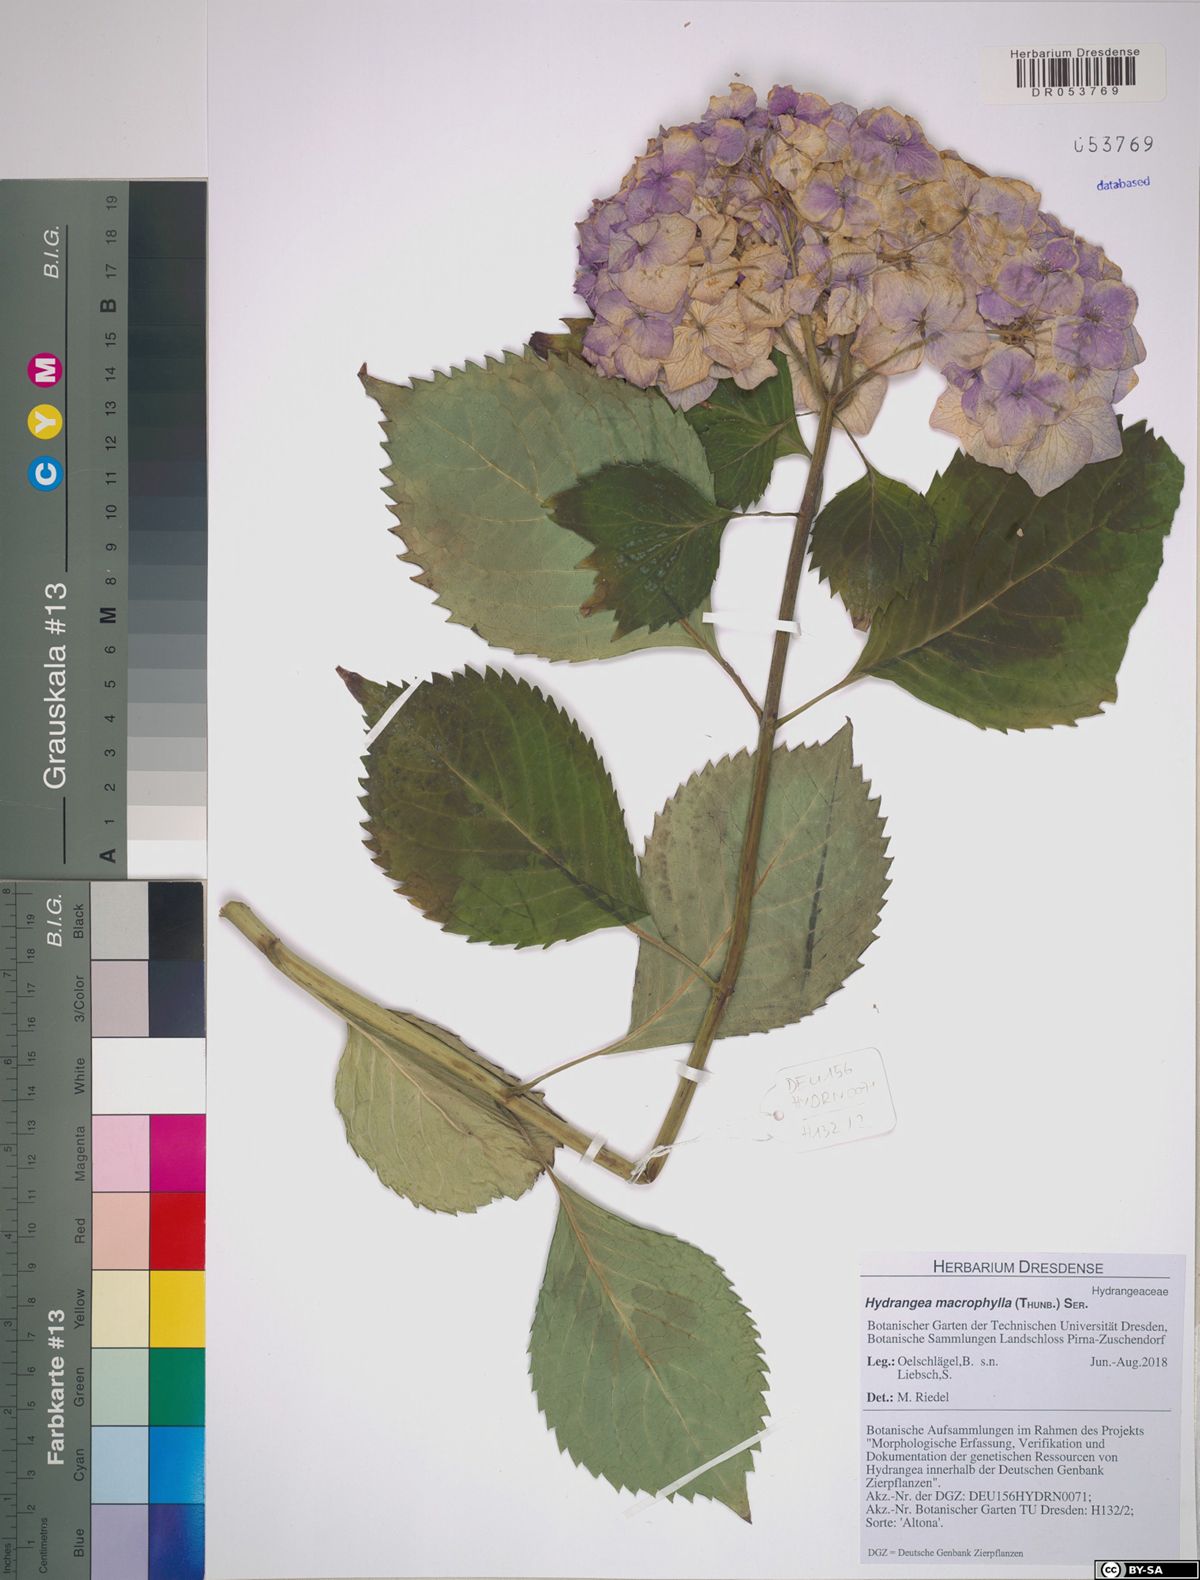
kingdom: Plantae
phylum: Tracheophyta
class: Magnoliopsida
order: Cornales
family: Hydrangeaceae
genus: Hydrangea
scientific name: Hydrangea macrophylla
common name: Hydrangea
